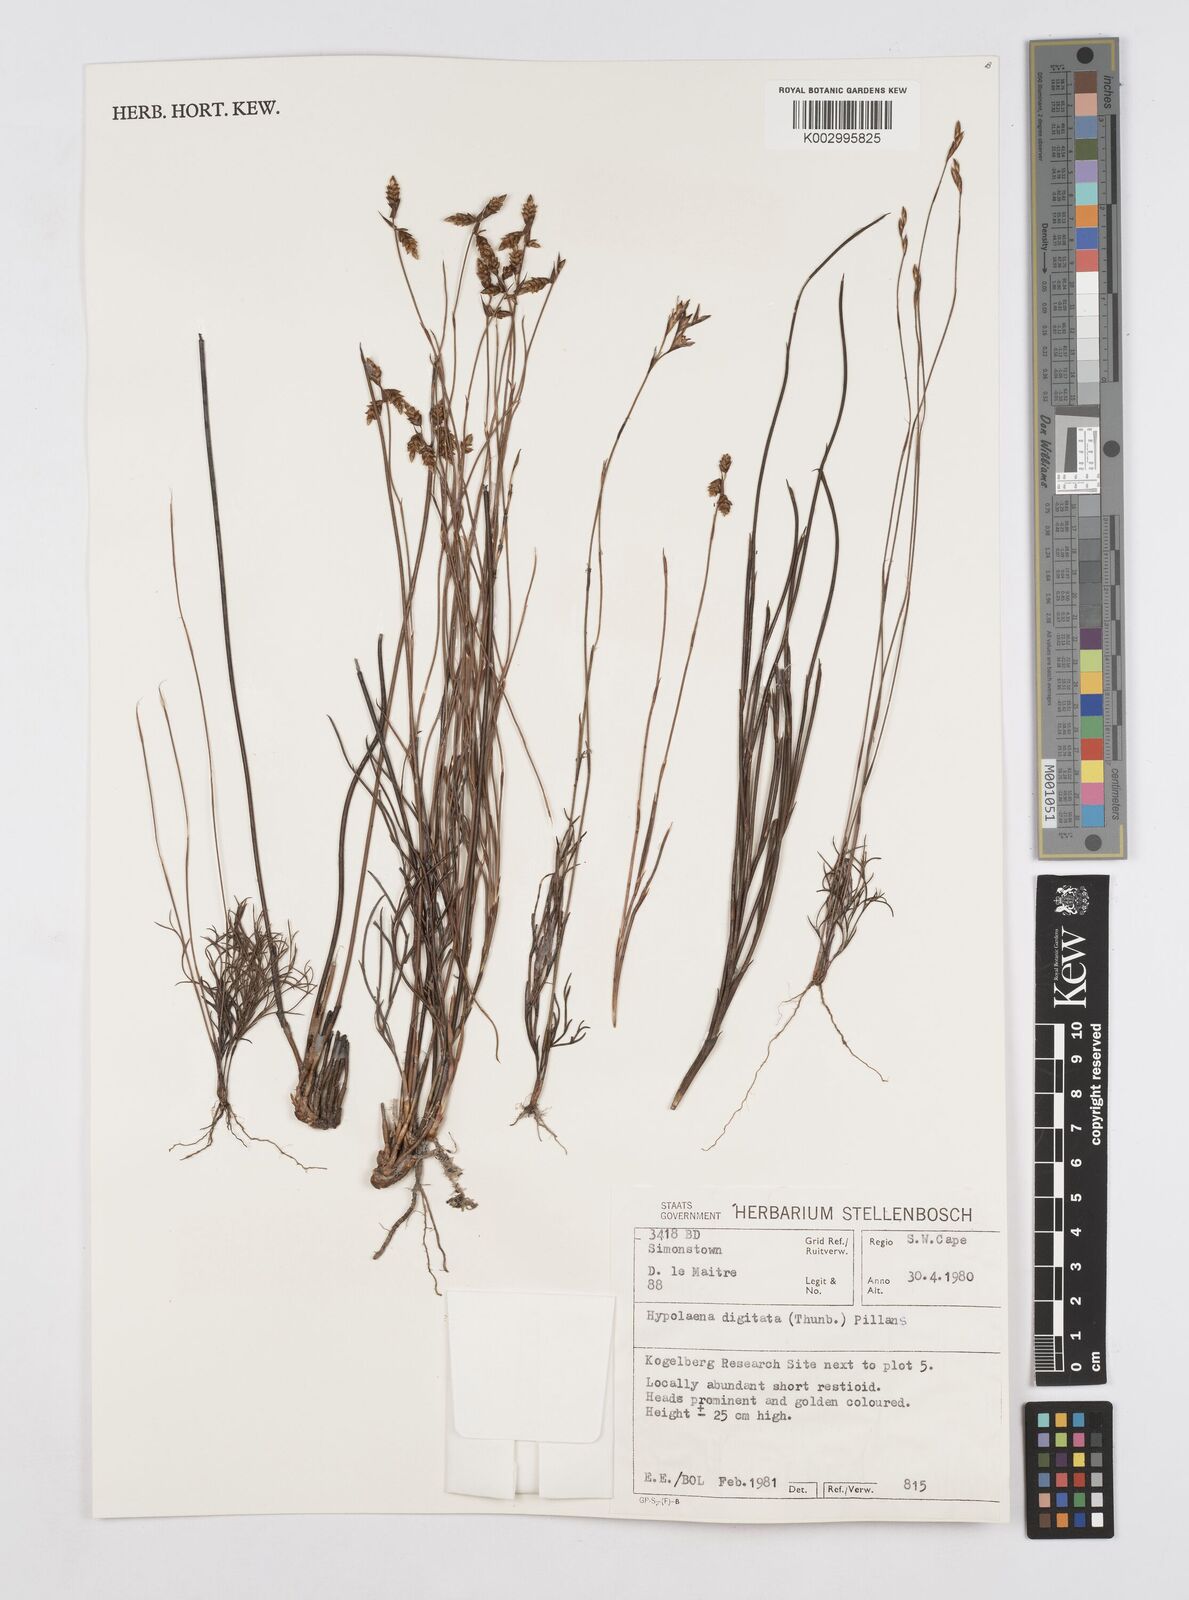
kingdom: Plantae
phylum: Tracheophyta
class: Liliopsida
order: Poales
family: Restionaceae
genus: Mastersiella
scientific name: Mastersiella digitata
